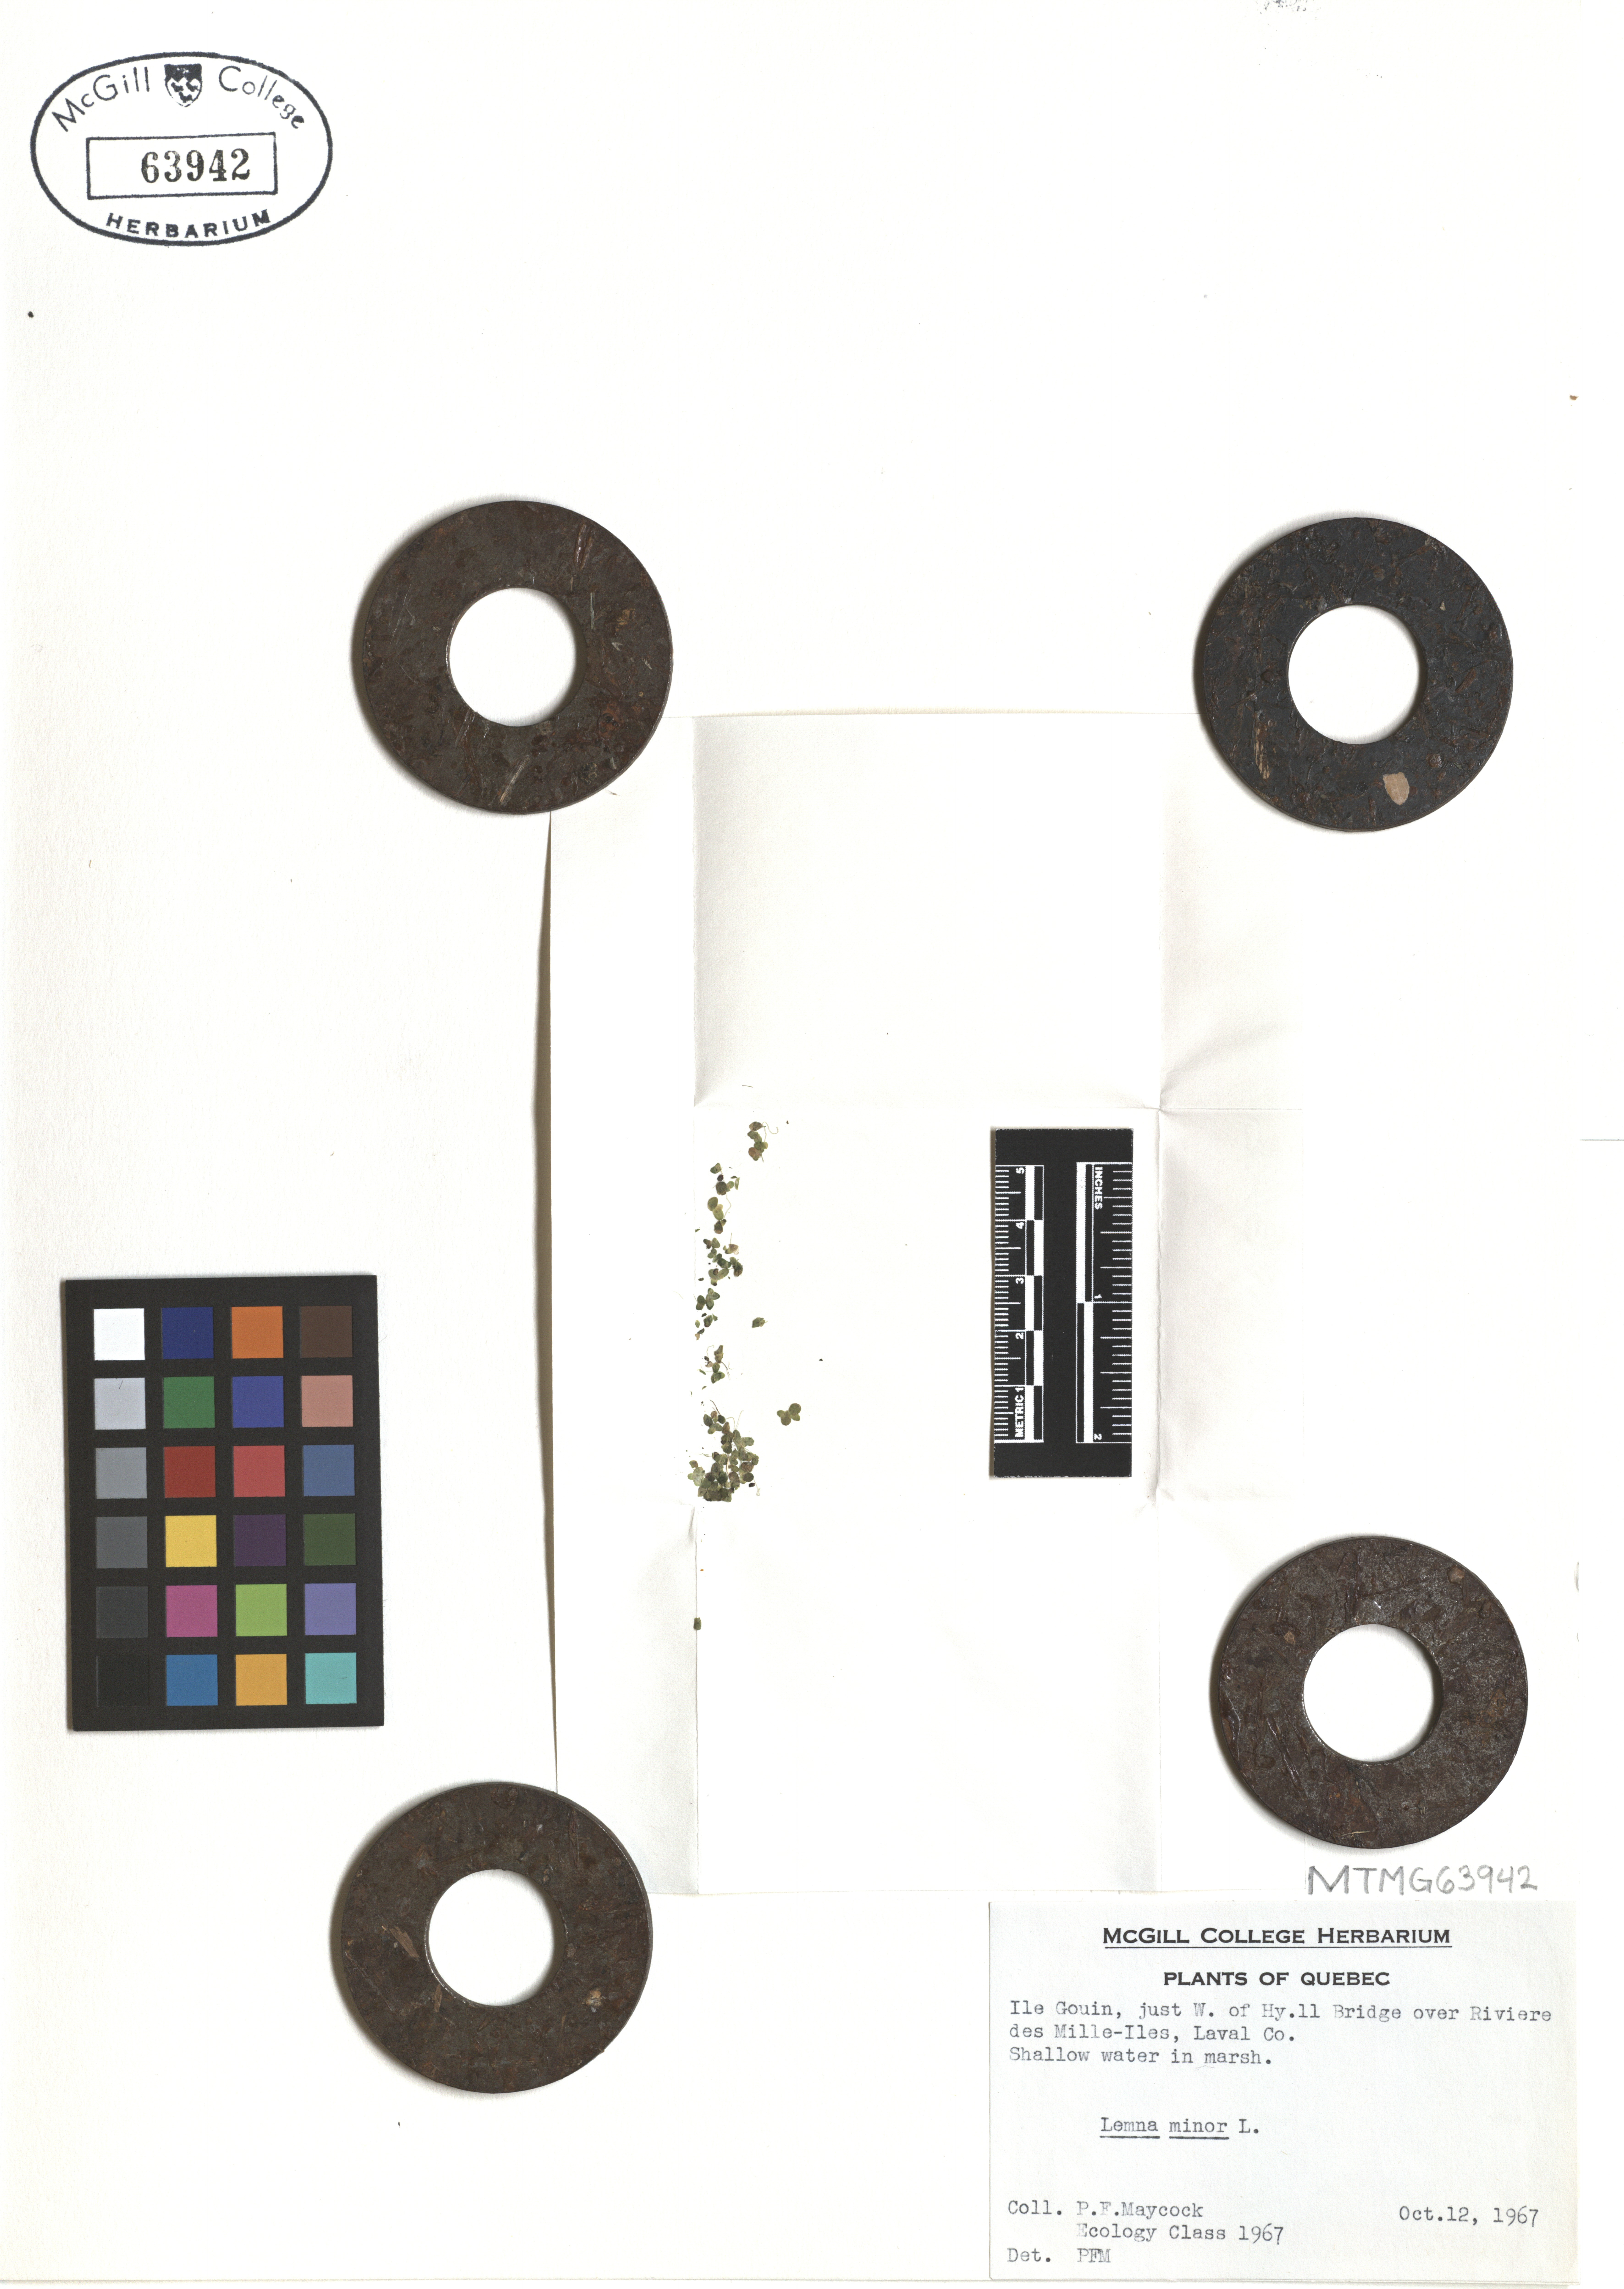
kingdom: Plantae
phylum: Tracheophyta
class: Liliopsida
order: Alismatales
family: Araceae
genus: Lemna
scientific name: Lemna minor
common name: Common duckweed
